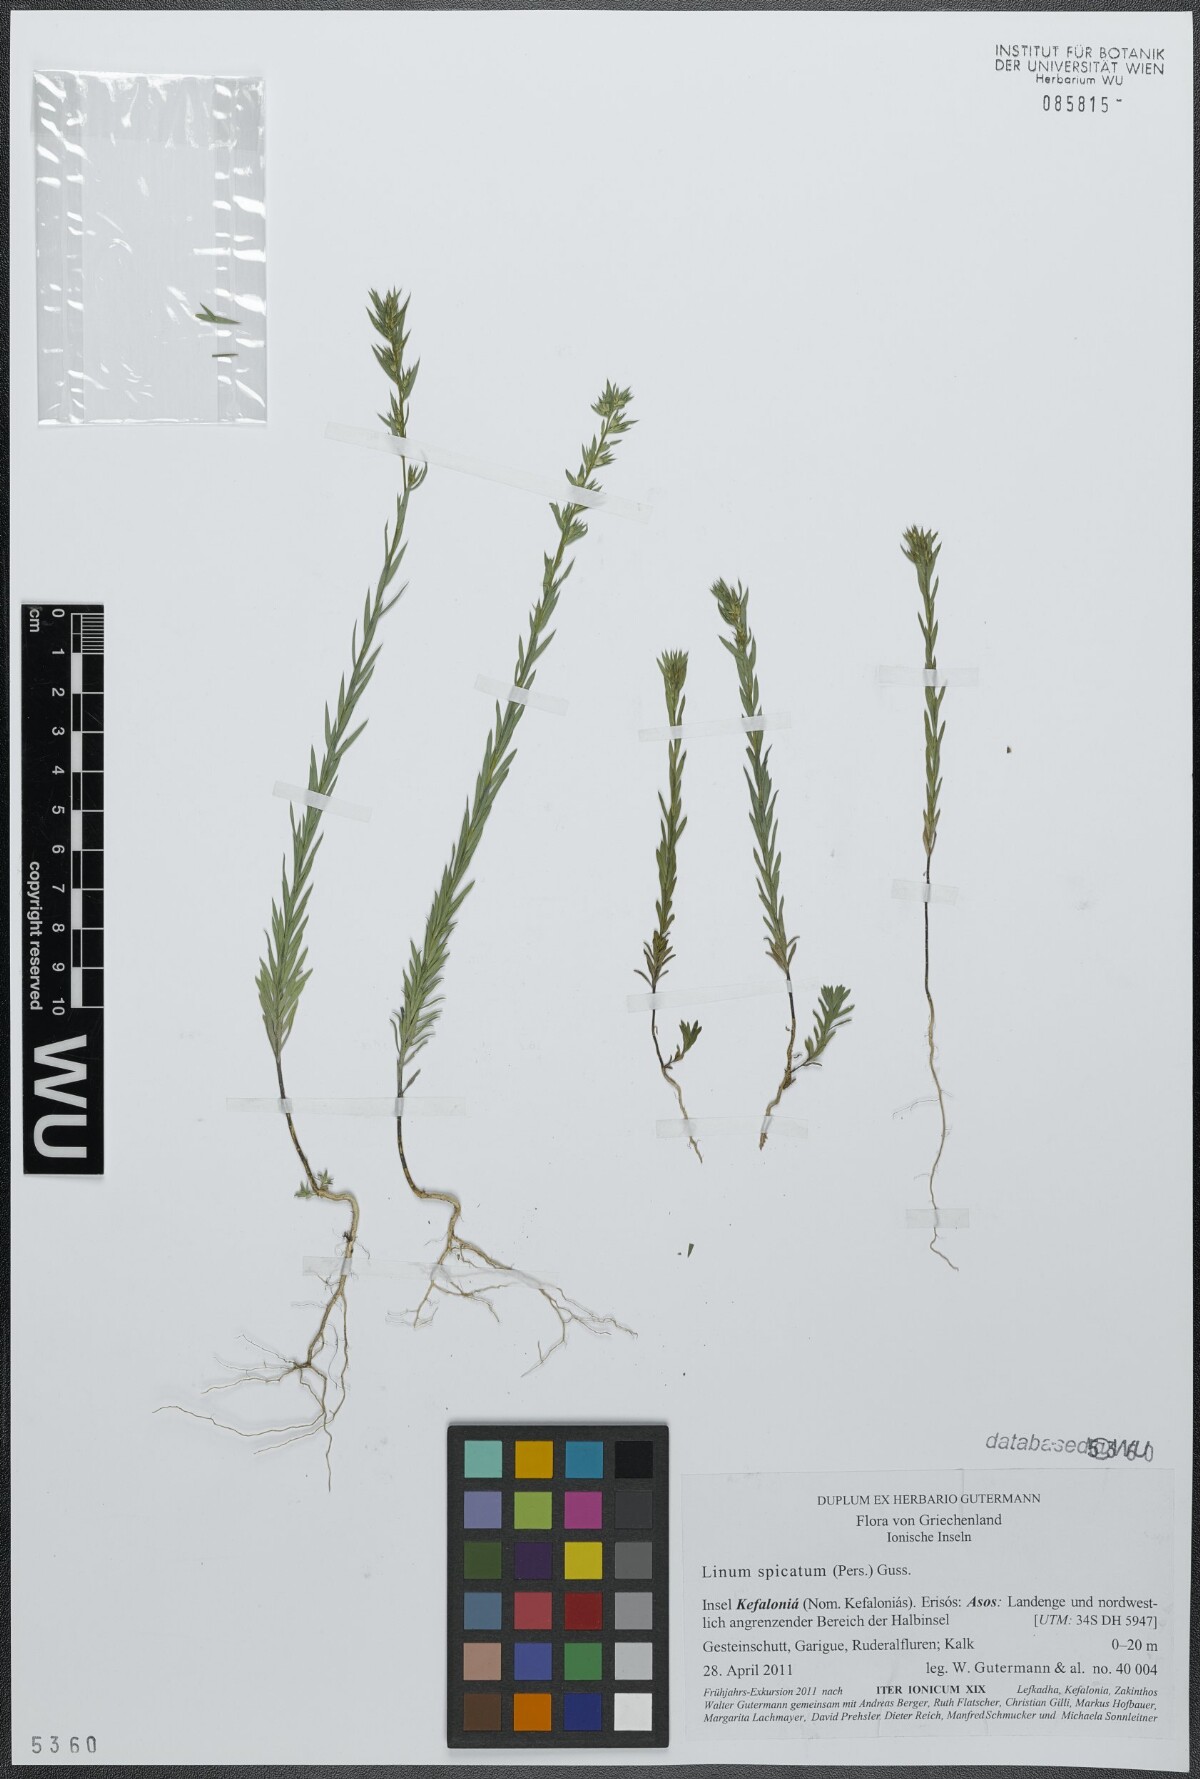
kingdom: Plantae
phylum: Tracheophyta
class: Magnoliopsida
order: Malpighiales
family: Linaceae
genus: Linum
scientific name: Linum strictum
